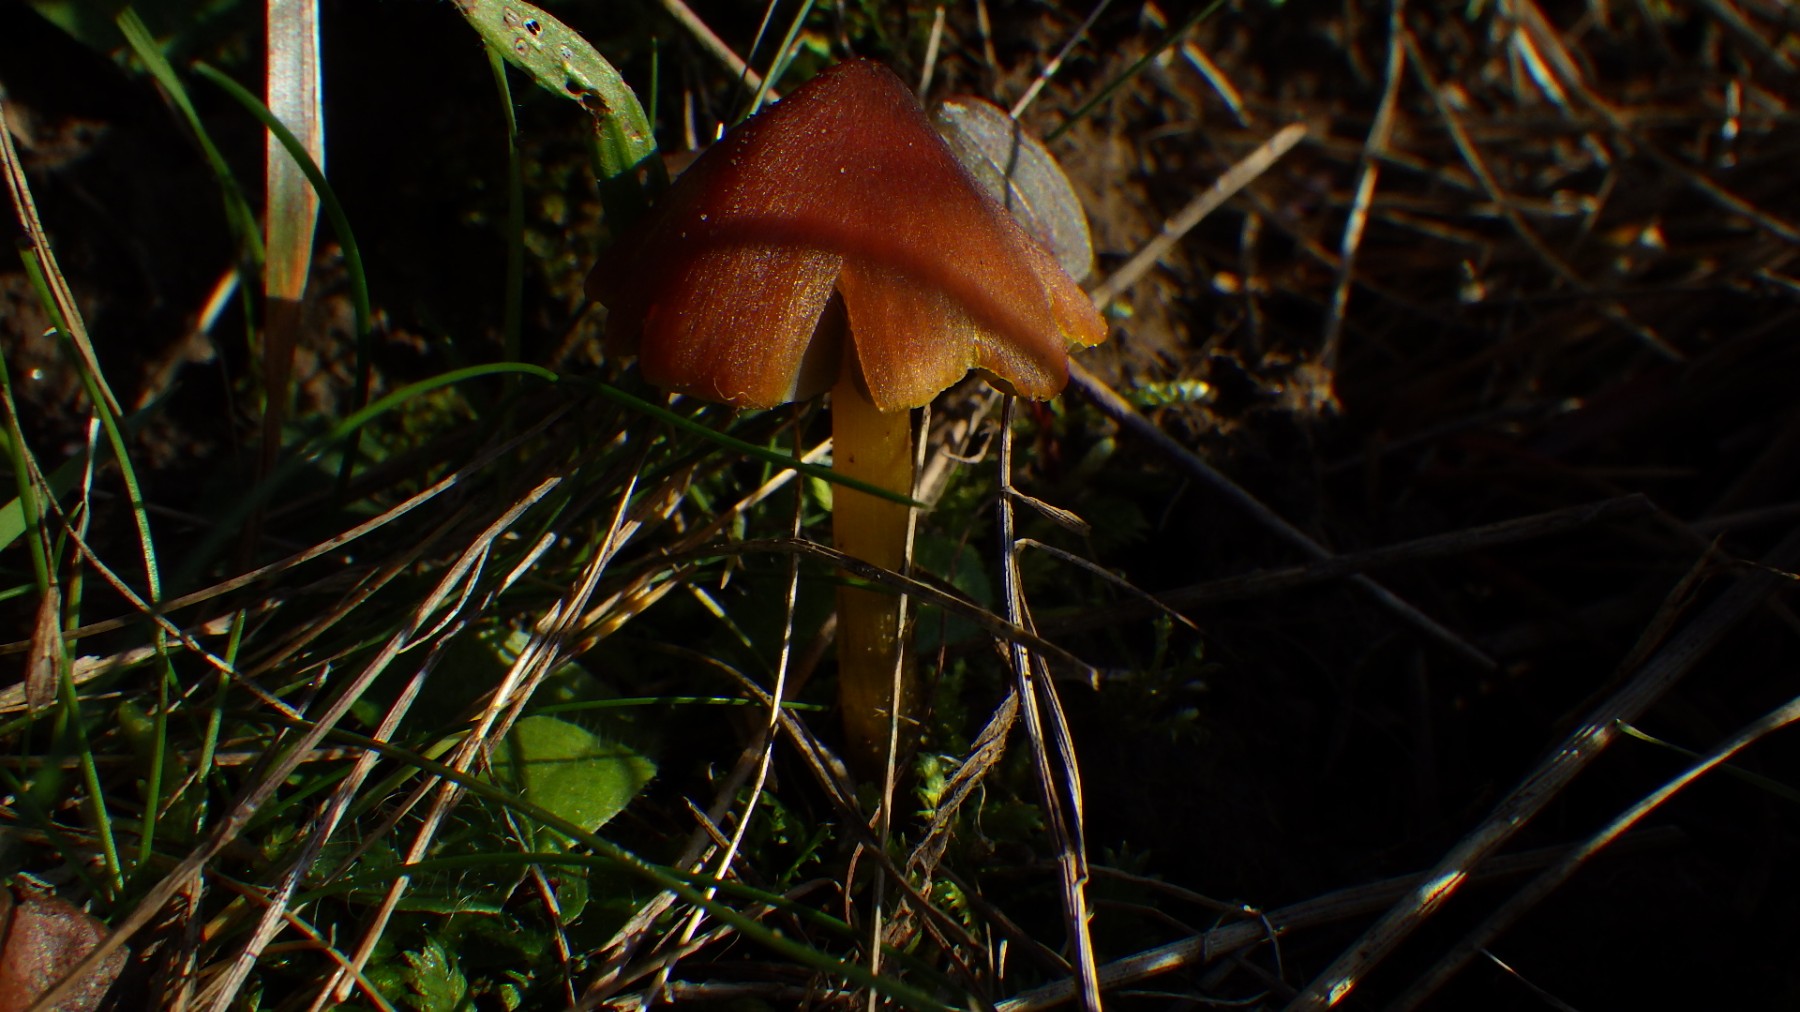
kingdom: Fungi
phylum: Basidiomycota
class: Agaricomycetes
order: Agaricales
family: Hygrophoraceae
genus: Hygrocybe
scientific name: Hygrocybe conica
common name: kegle-vokshat
